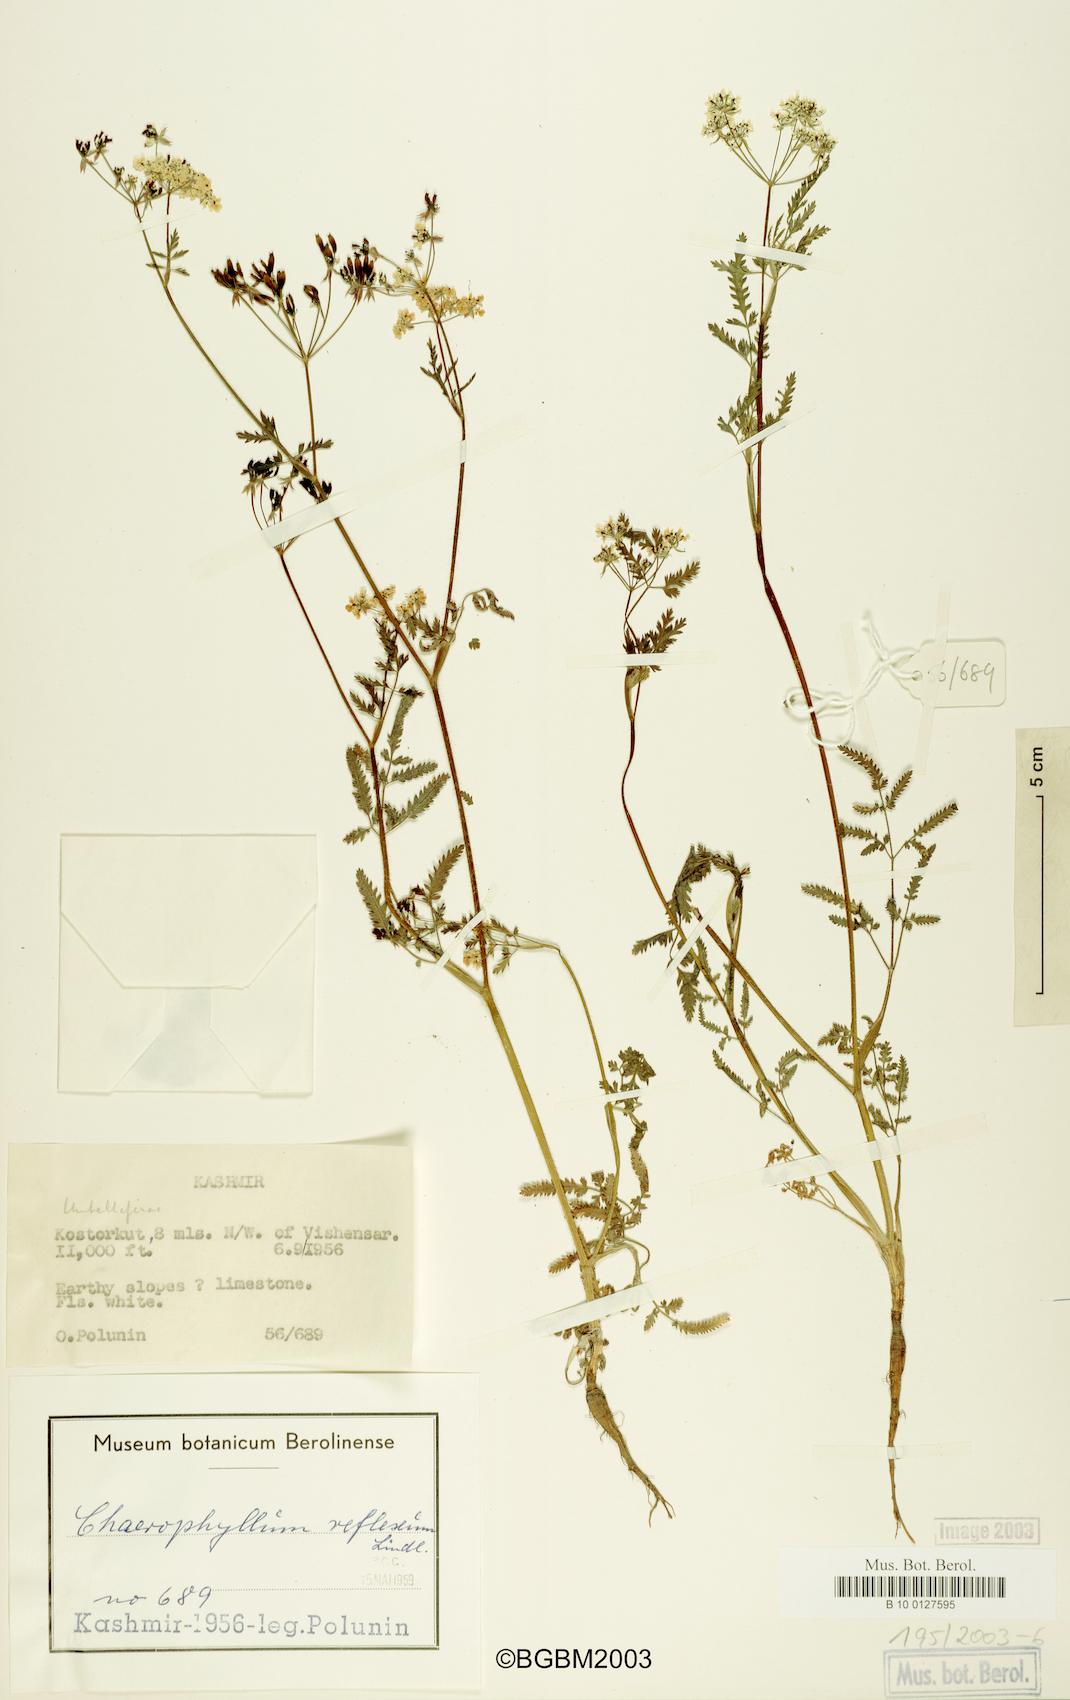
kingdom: Plantae
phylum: Tracheophyta
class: Magnoliopsida
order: Apiales
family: Apiaceae
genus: Chaerophyllum
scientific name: Chaerophyllum reflexum
